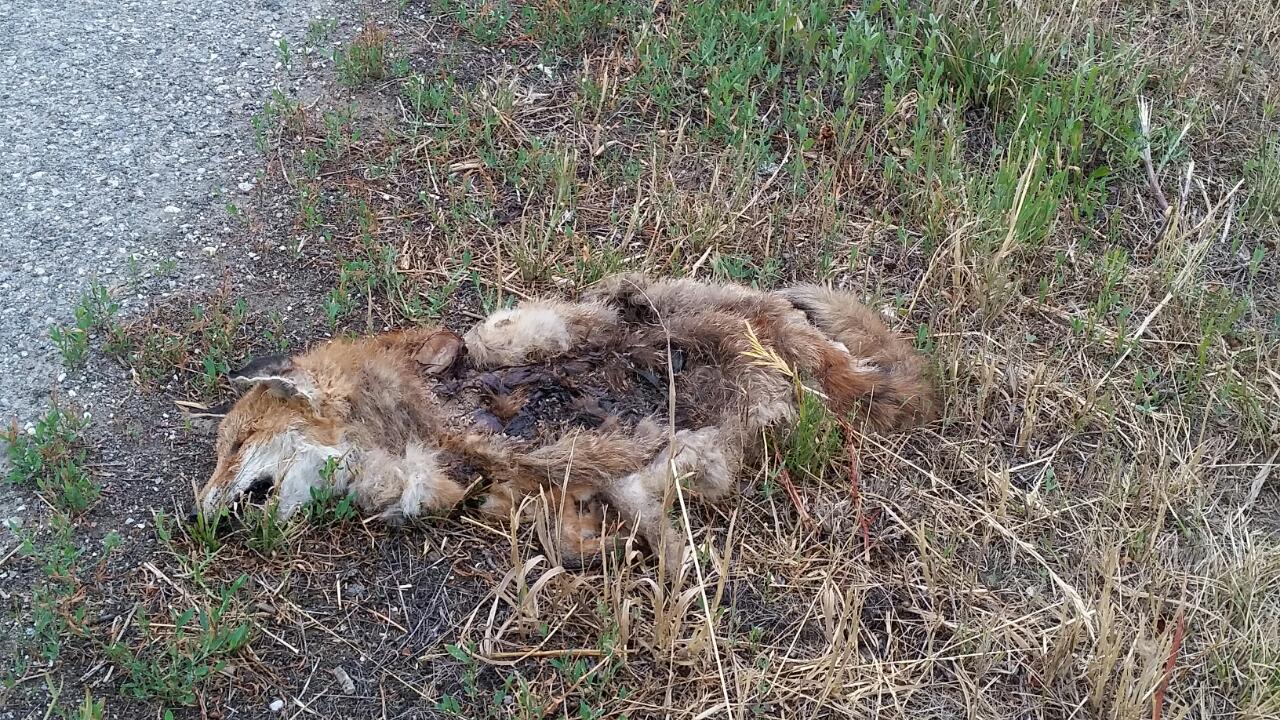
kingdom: Animalia
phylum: Chordata
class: Mammalia
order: Carnivora
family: Canidae
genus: Vulpes
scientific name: Vulpes vulpes
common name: Red fox
